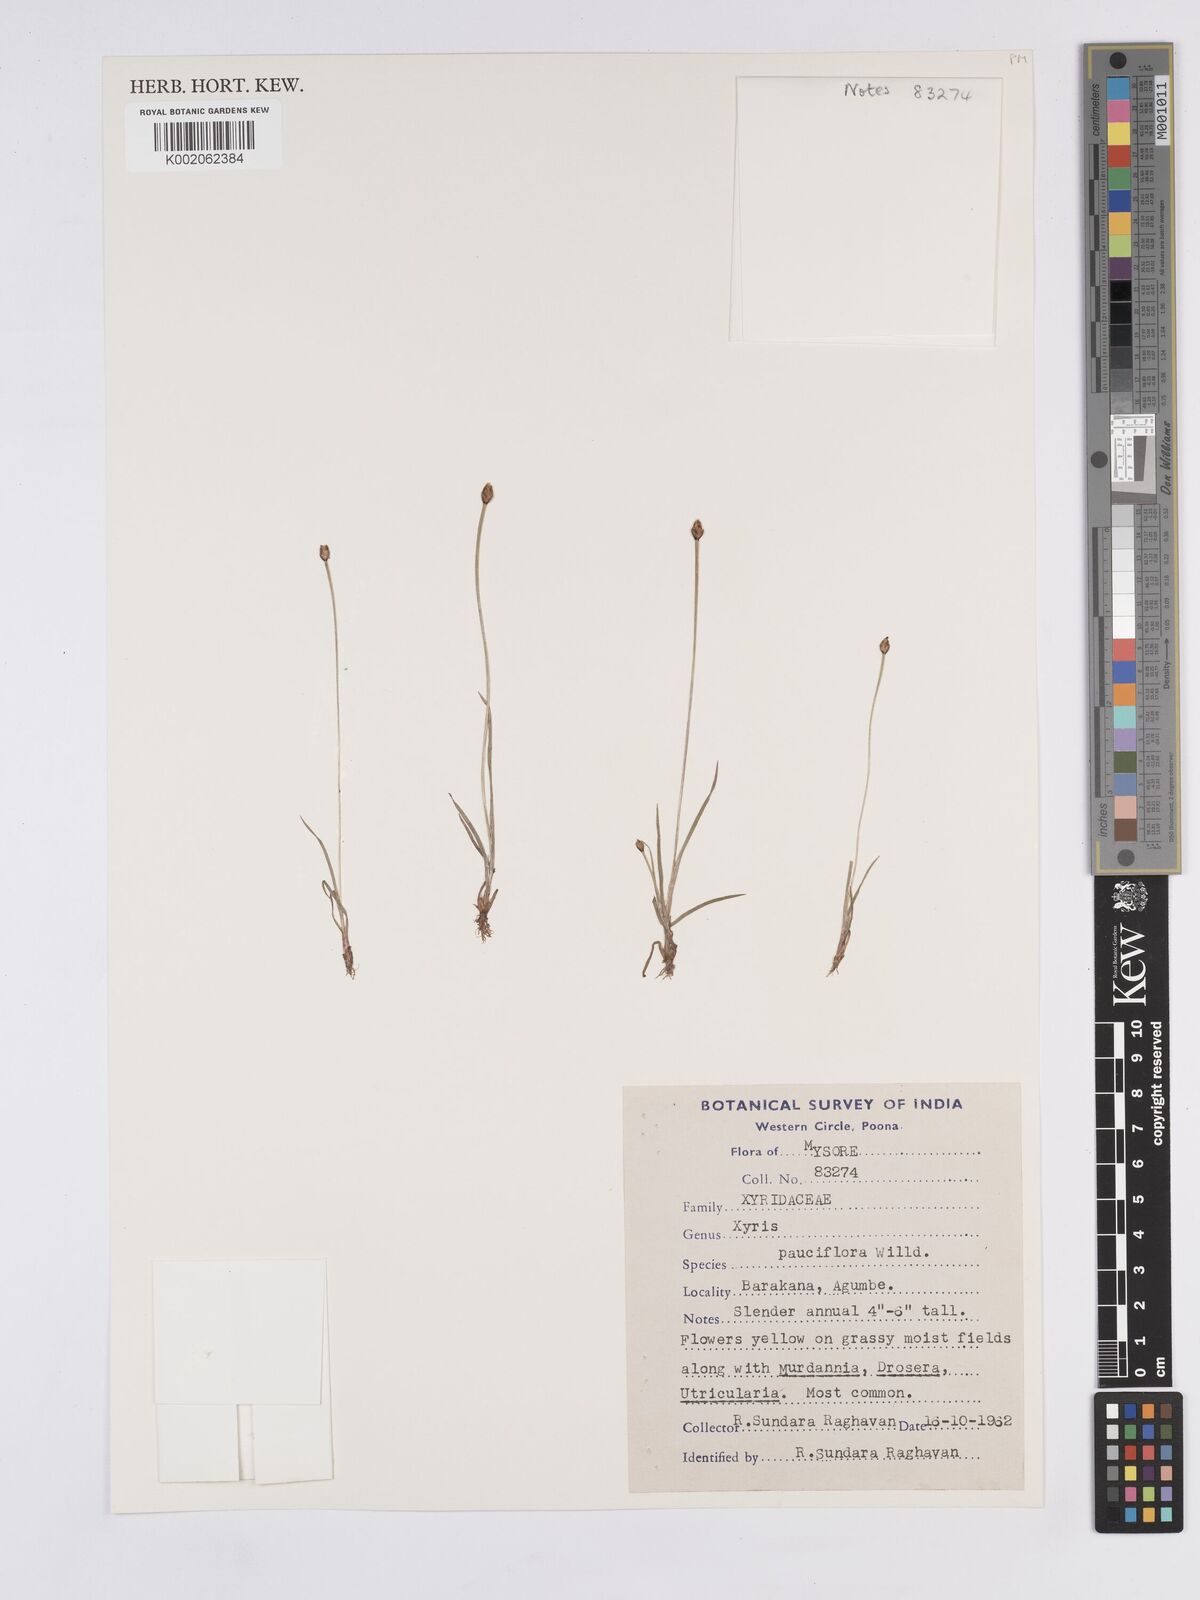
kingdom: Plantae
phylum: Tracheophyta
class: Liliopsida
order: Poales
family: Xyridaceae
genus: Xyris
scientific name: Xyris pauciflora
